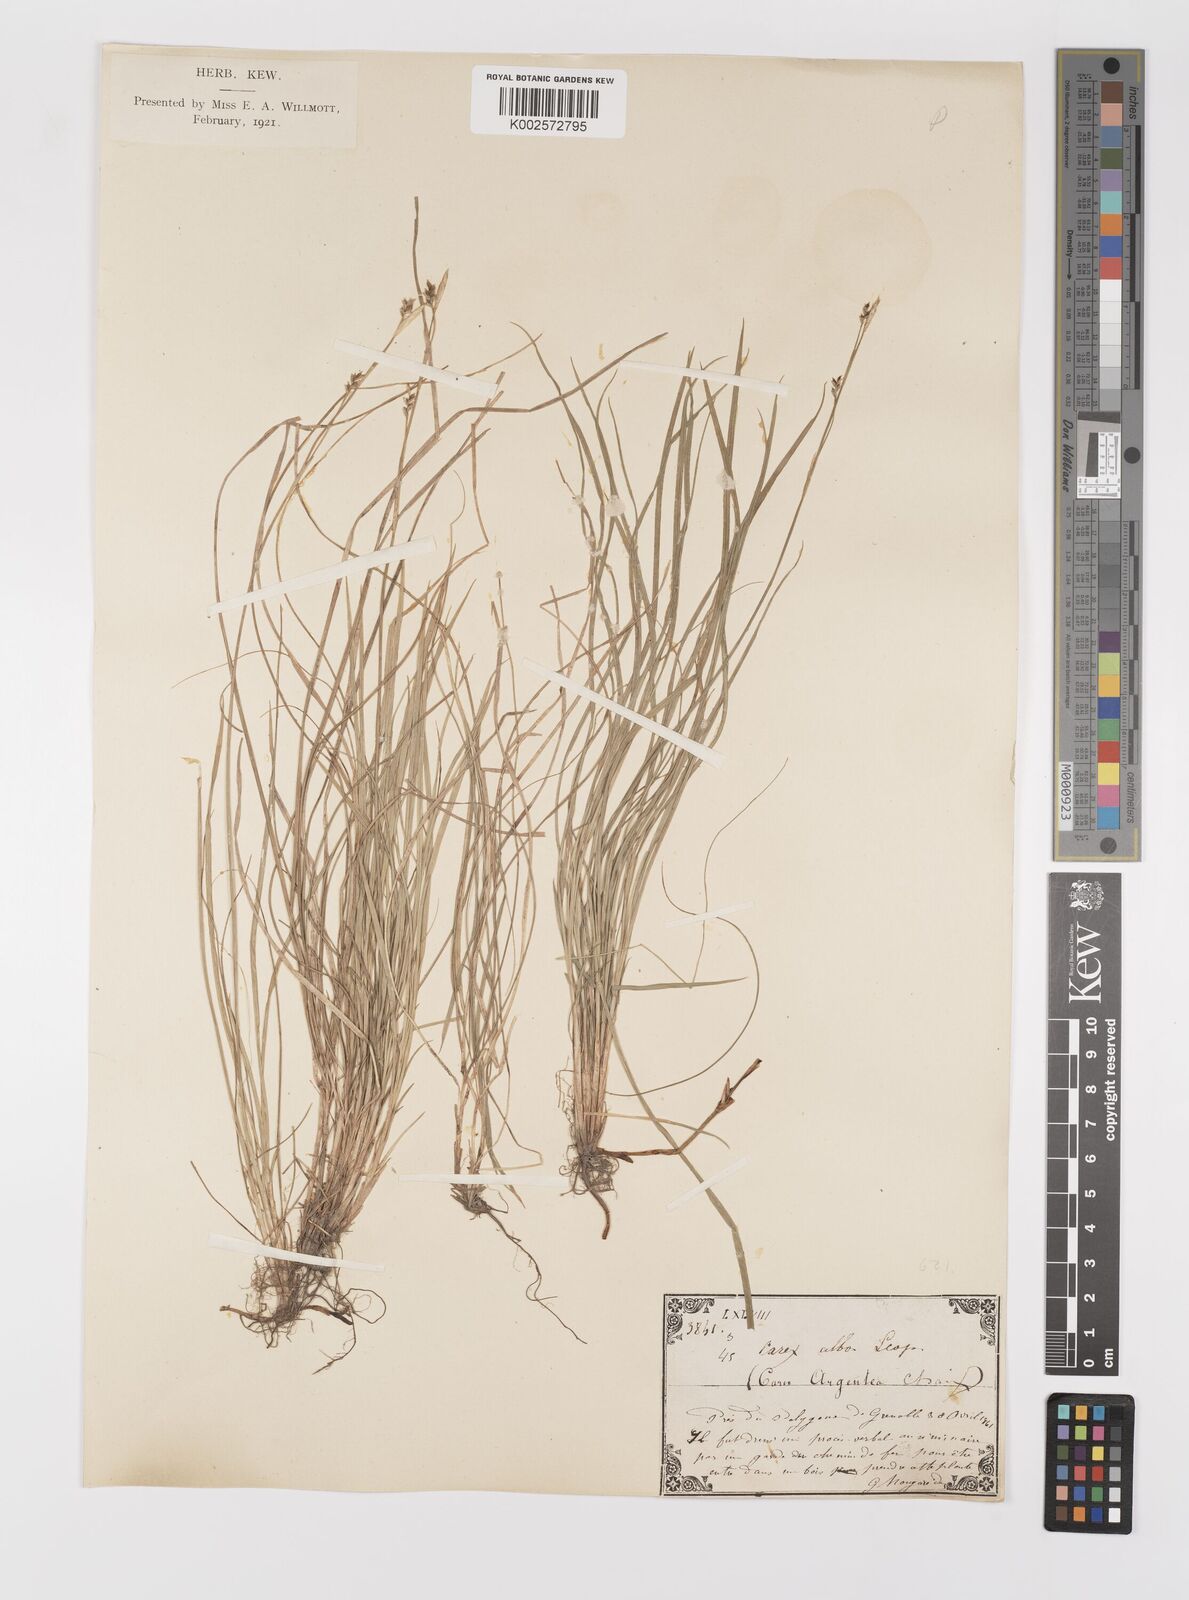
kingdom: Plantae
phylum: Tracheophyta
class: Liliopsida
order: Poales
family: Cyperaceae
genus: Carex
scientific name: Carex alba
